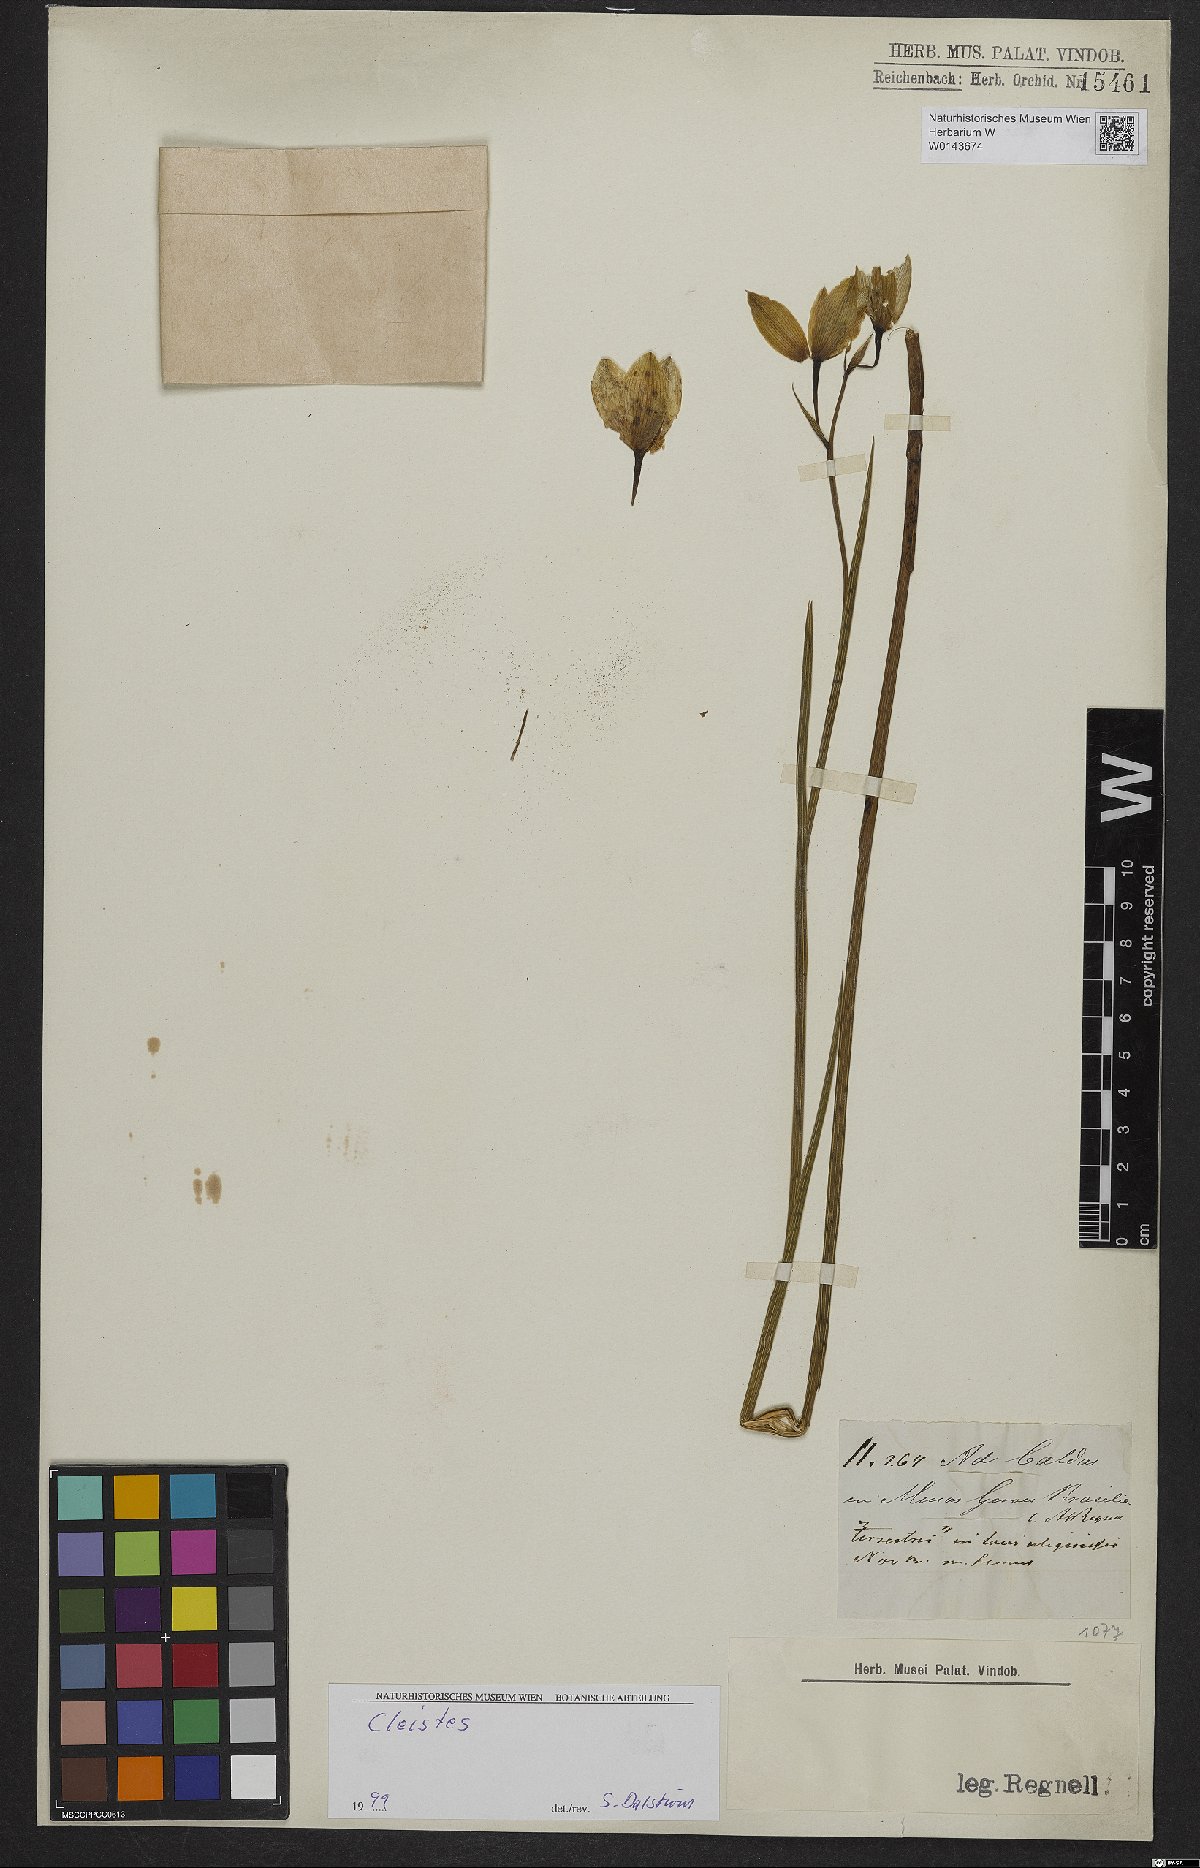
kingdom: Plantae
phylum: Tracheophyta
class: Liliopsida
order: Asparagales
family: Orchidaceae
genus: Cleistes
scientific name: Cleistes
